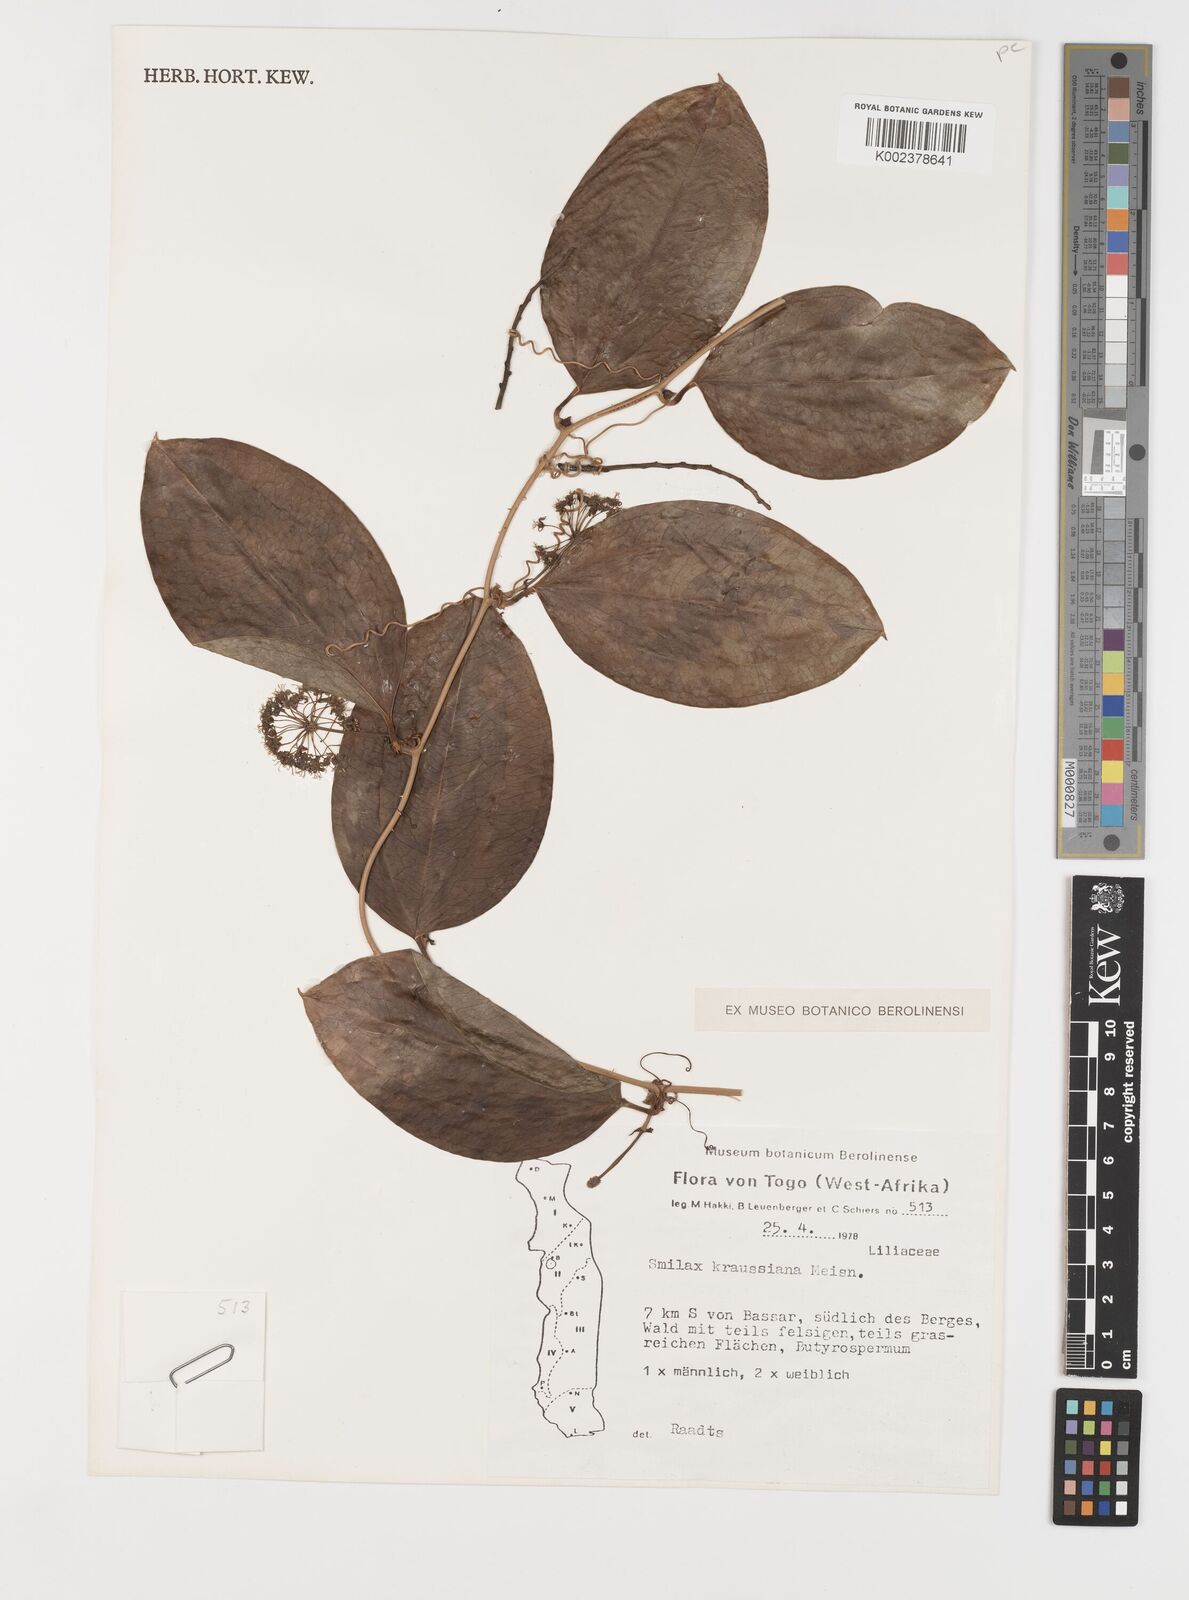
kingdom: Plantae
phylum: Tracheophyta
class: Liliopsida
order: Liliales
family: Smilacaceae
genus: Smilax
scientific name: Smilax anceps
